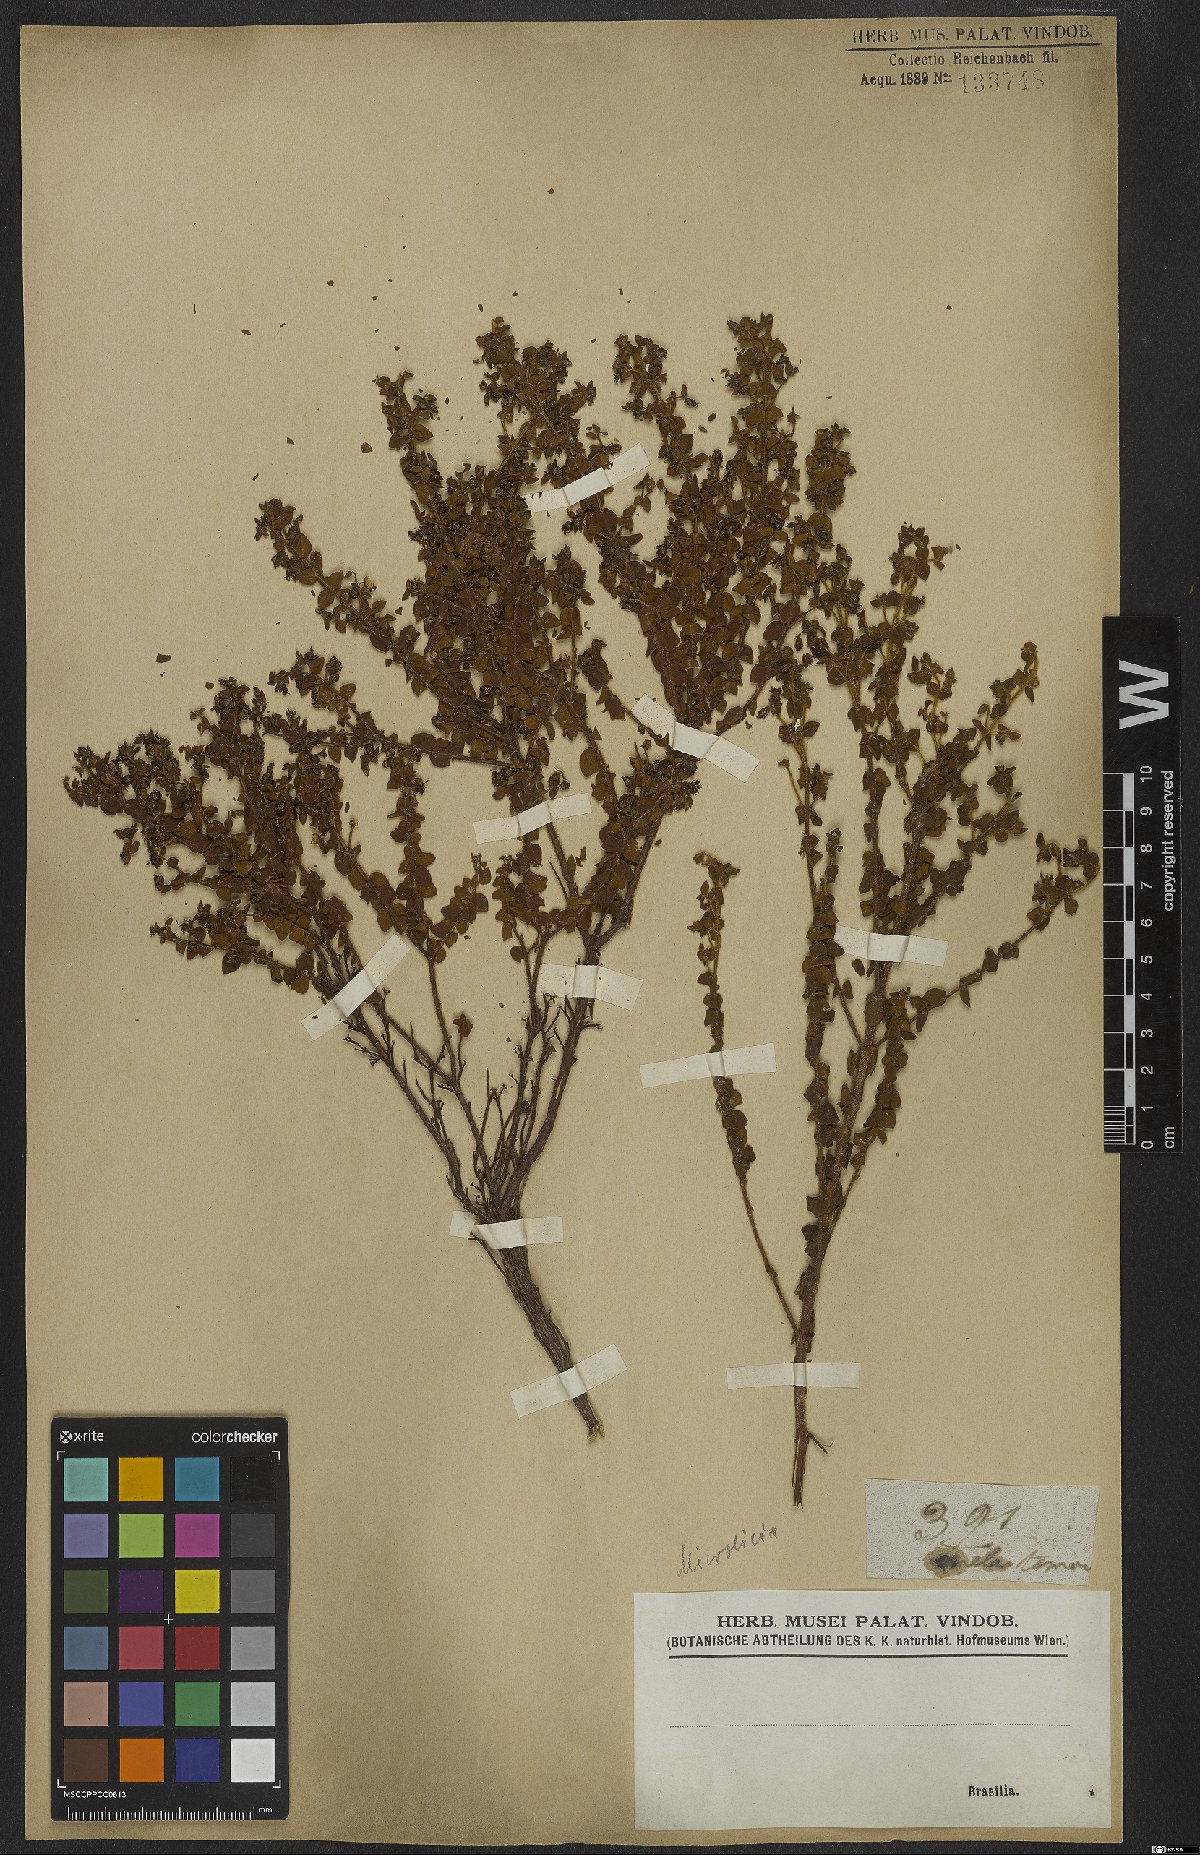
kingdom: Plantae
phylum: Tracheophyta
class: Magnoliopsida
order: Myrtales
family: Melastomataceae
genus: Microlicia
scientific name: Microlicia cordata
